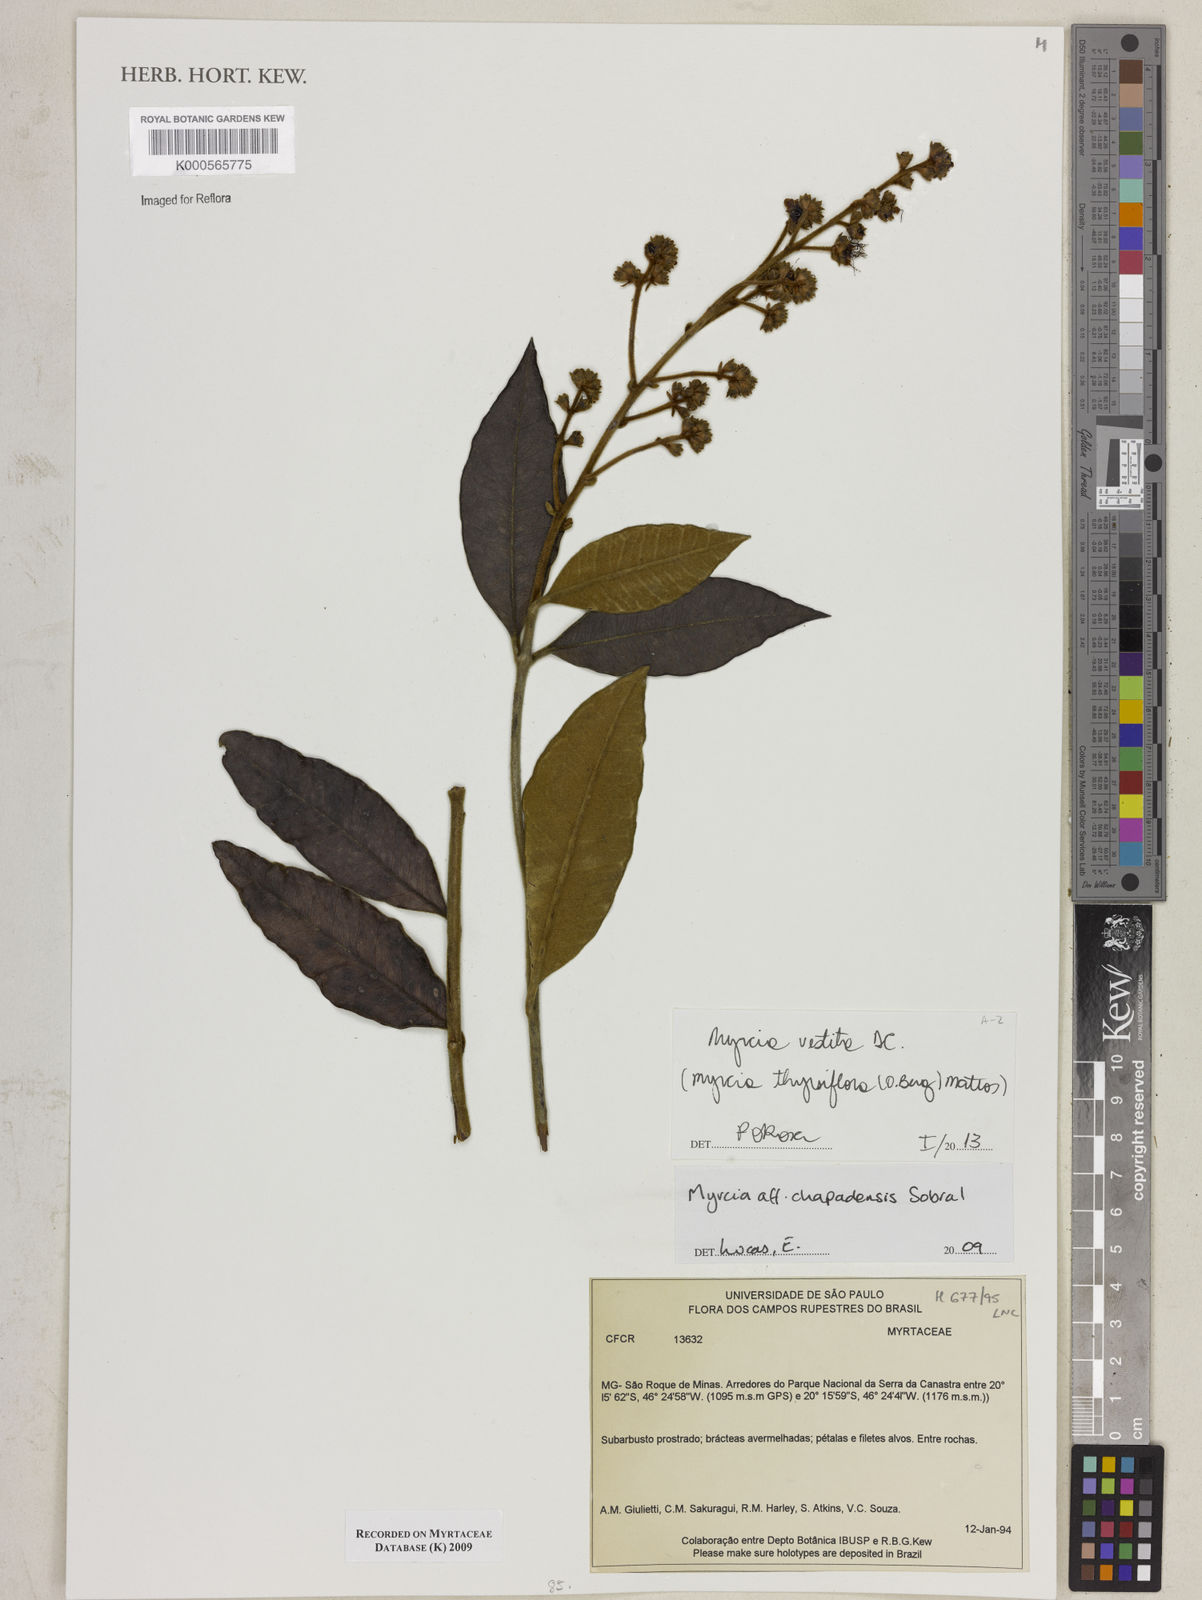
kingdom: Plantae
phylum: Tracheophyta
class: Magnoliopsida
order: Myrtales
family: Myrtaceae
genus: Myrcia
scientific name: Myrcia
